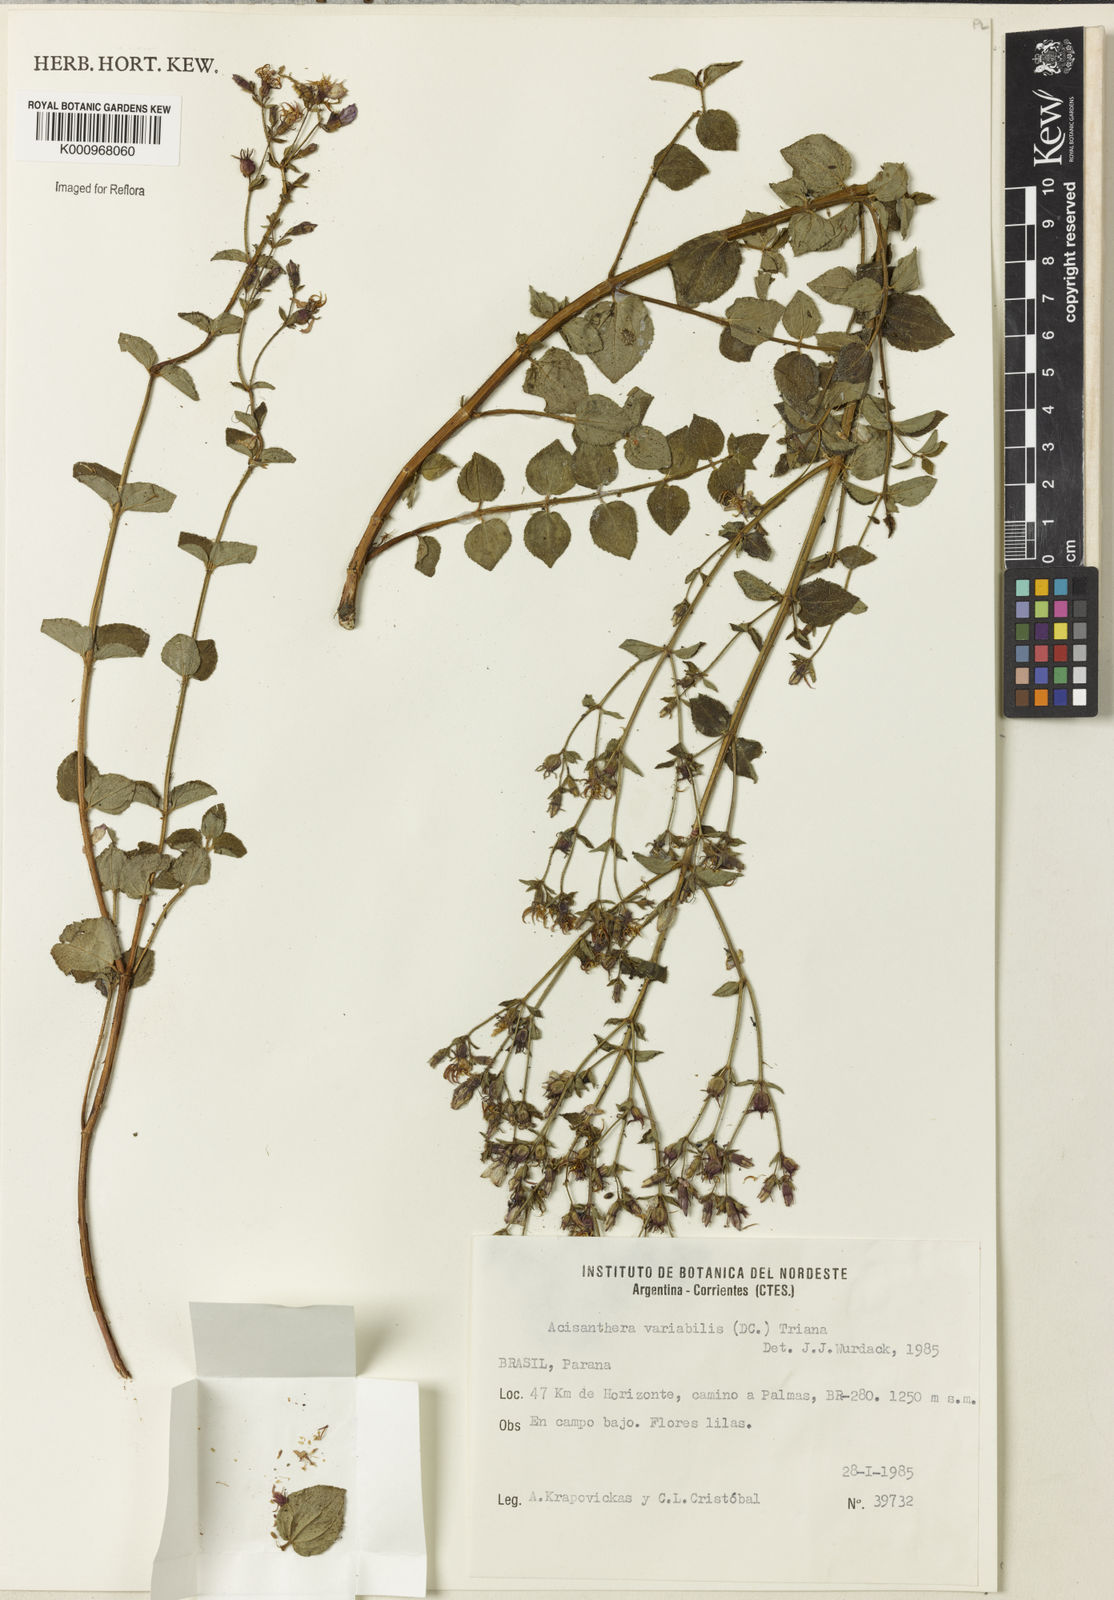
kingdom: Plantae
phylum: Tracheophyta
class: Magnoliopsida
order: Myrtales
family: Melastomataceae
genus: Acisanthera
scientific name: Acisanthera variabilis
